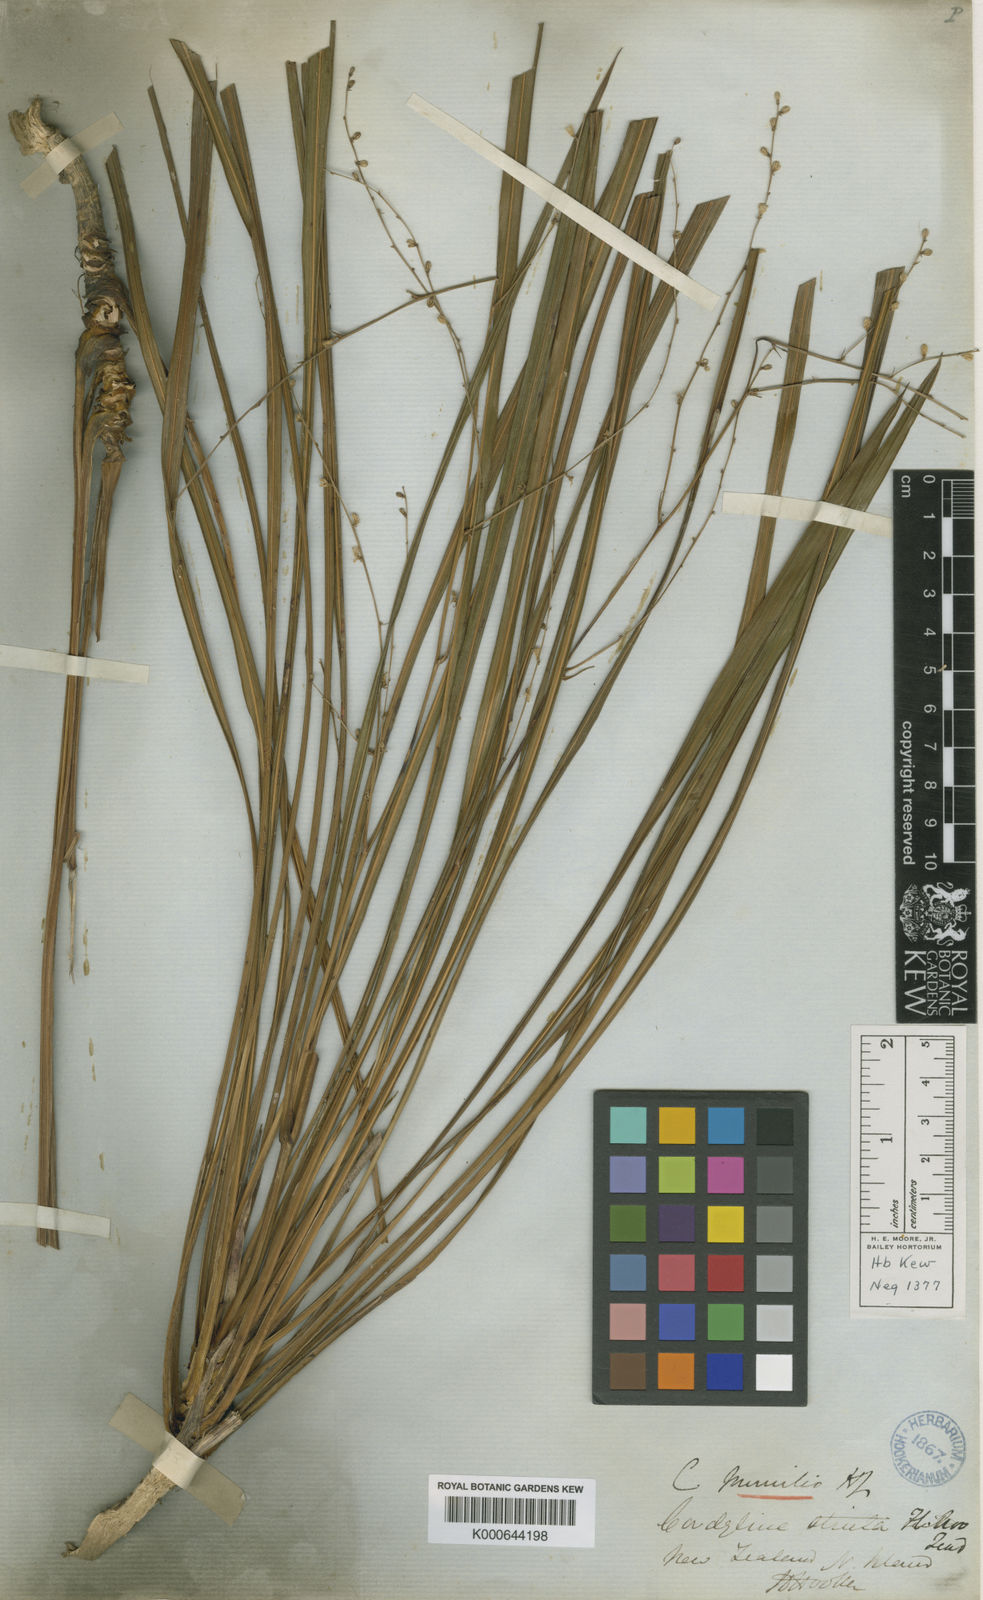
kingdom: Plantae
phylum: Tracheophyta
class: Liliopsida
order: Asparagales
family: Asparagaceae
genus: Cordyline
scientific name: Cordyline pumilio
